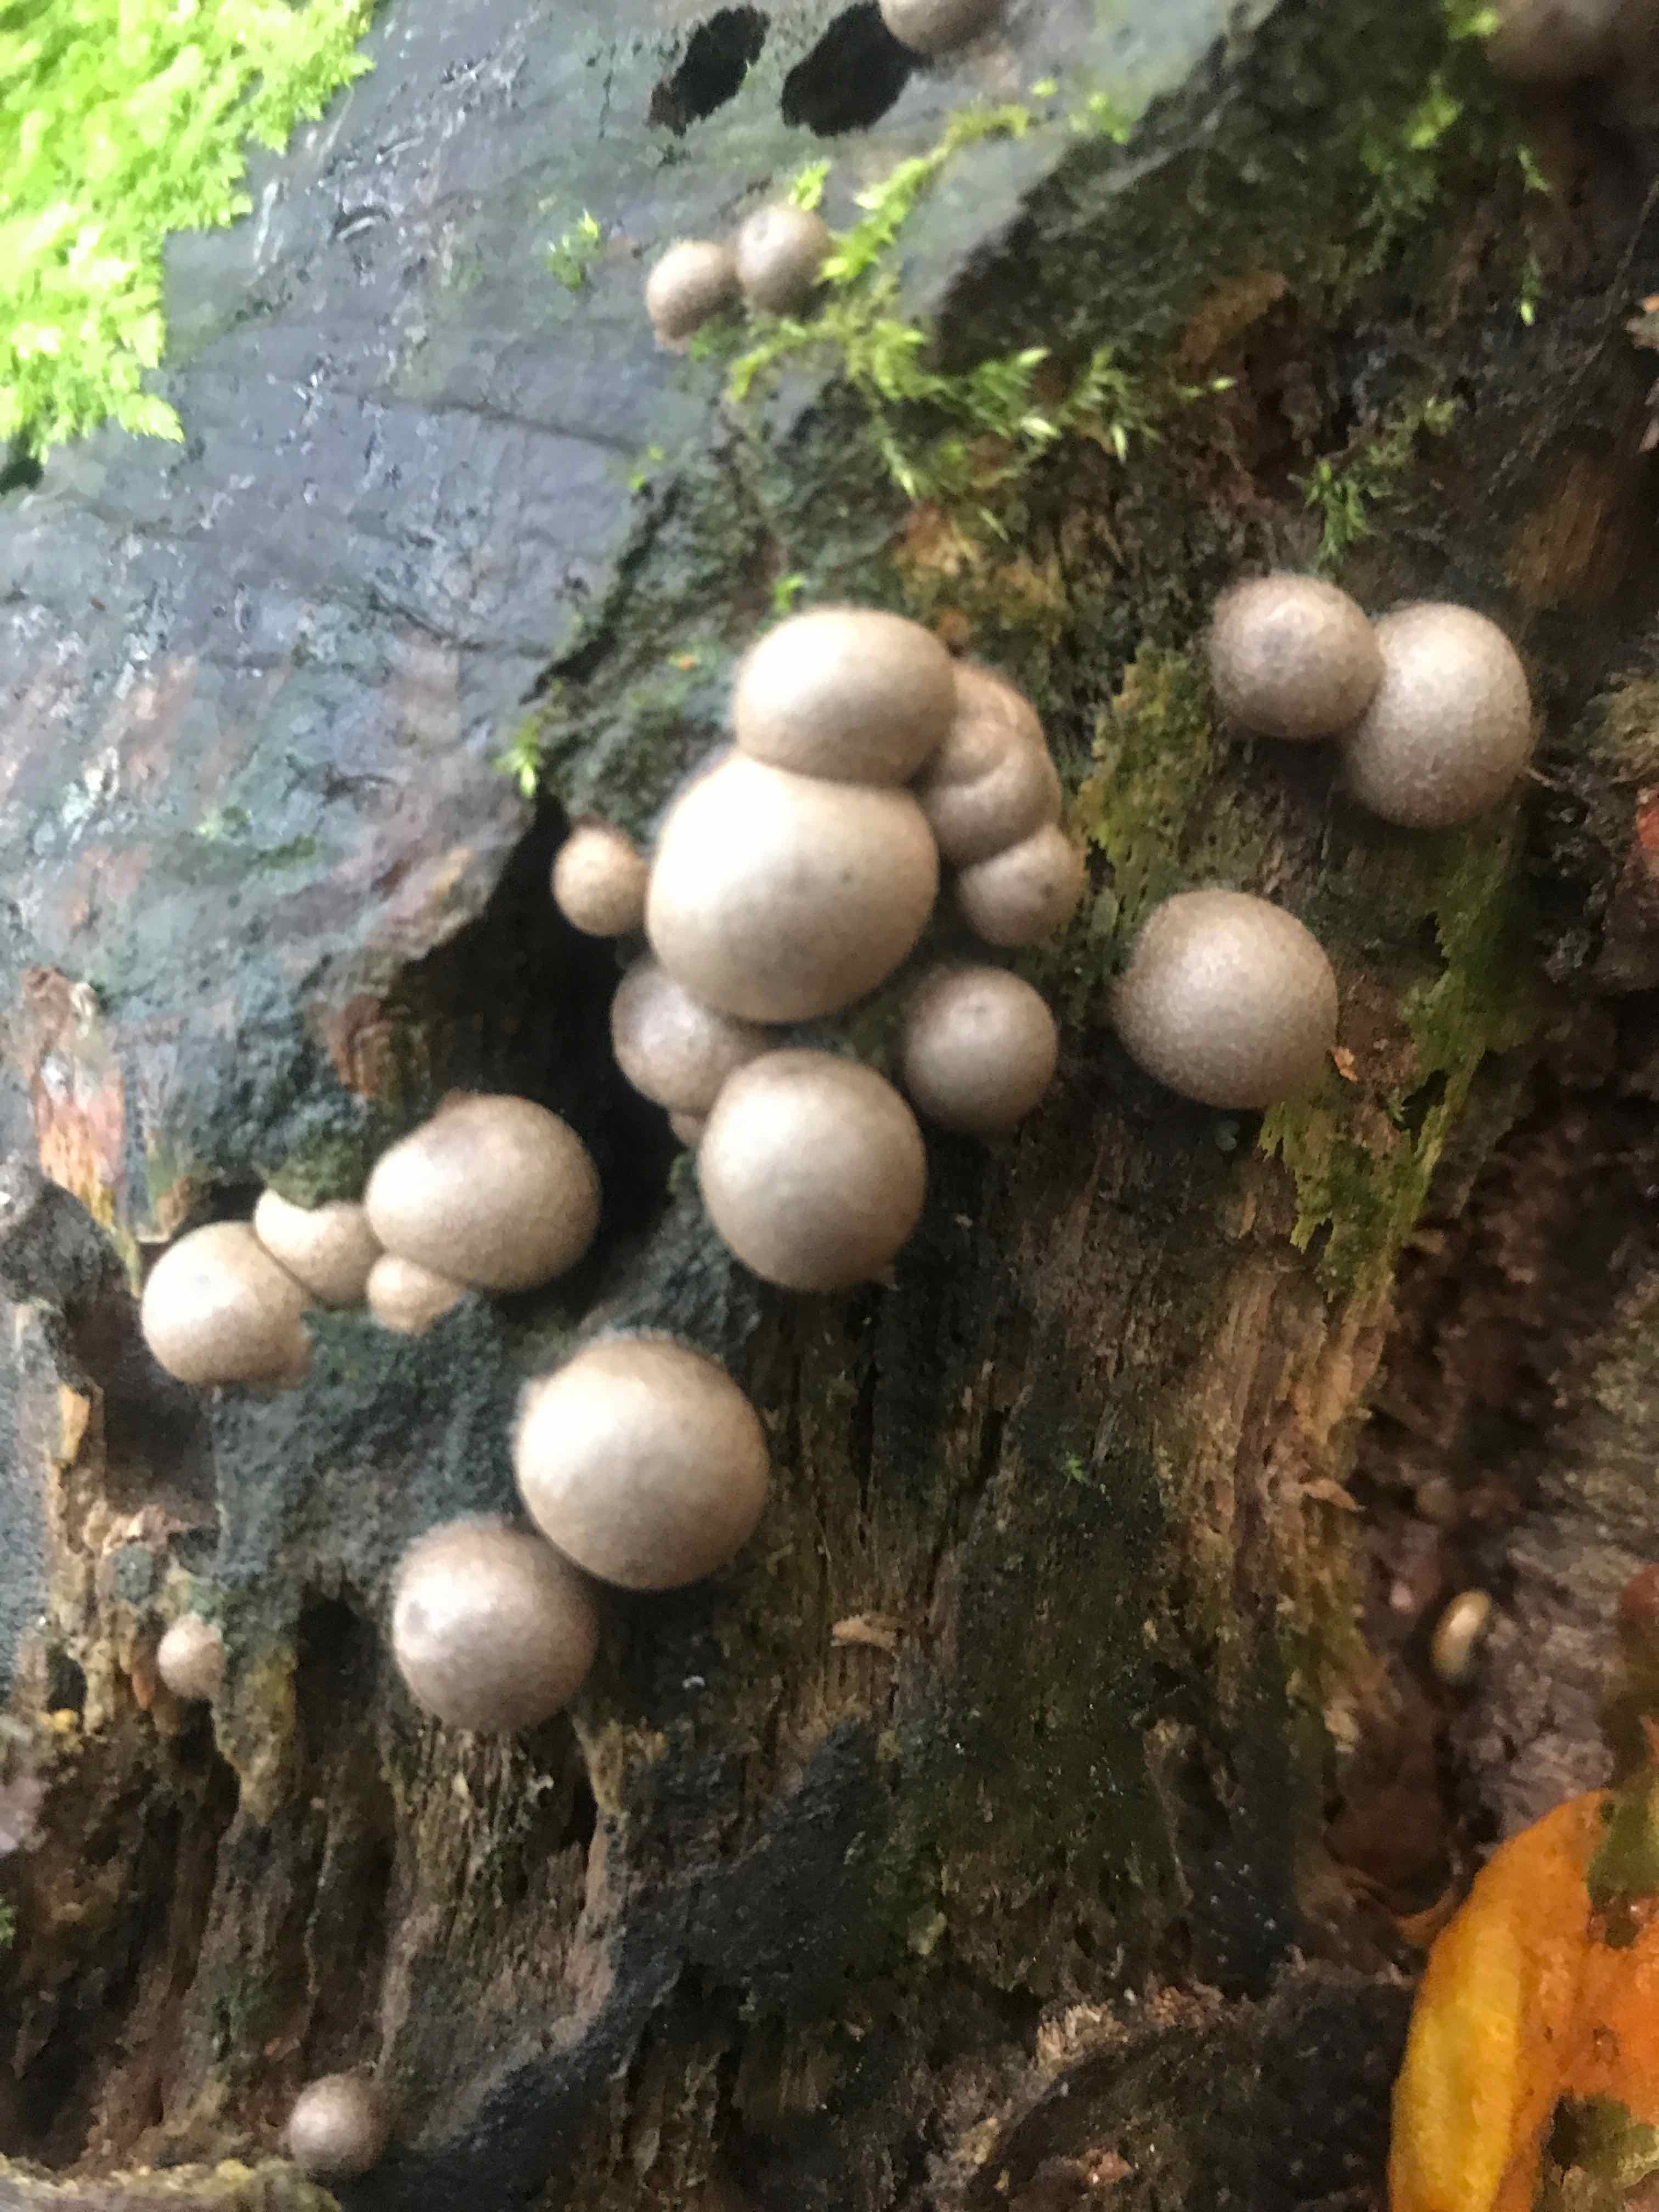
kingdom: Protozoa
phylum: Mycetozoa
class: Myxomycetes
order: Cribrariales
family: Tubiferaceae
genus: Lycogala
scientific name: Lycogala epidendrum
